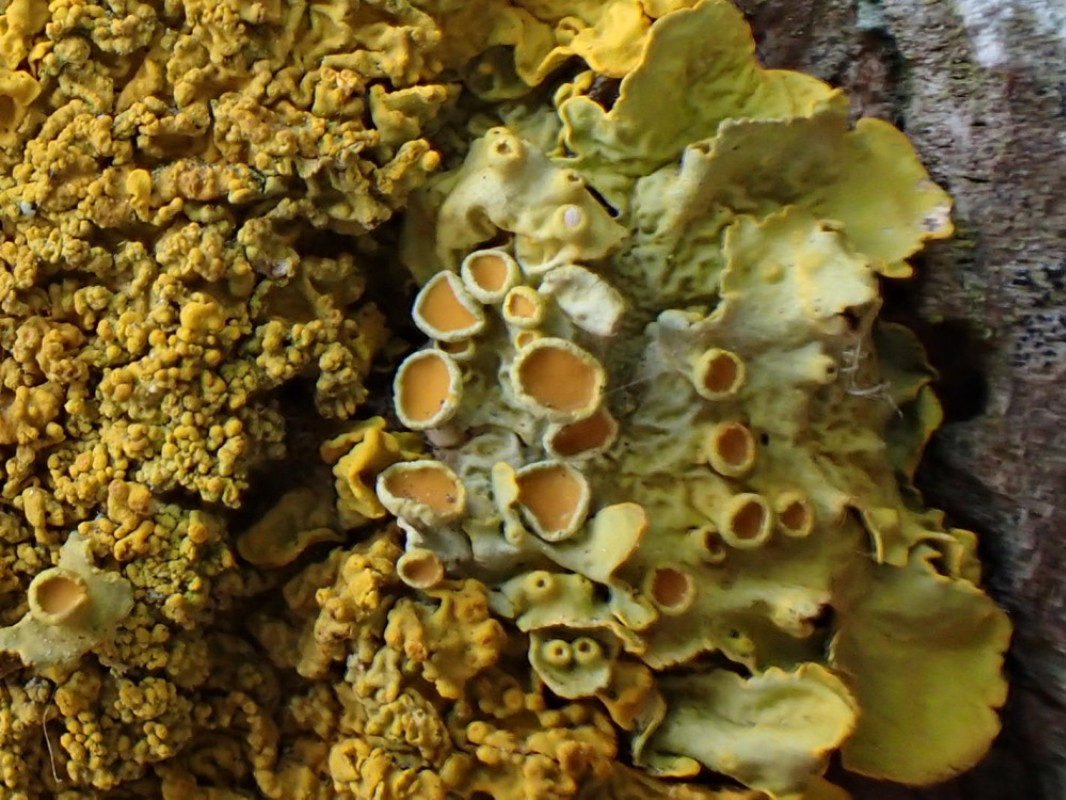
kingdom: Fungi
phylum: Ascomycota
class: Lecanoromycetes
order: Teloschistales
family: Teloschistaceae
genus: Xanthoria
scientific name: Xanthoria parietina
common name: almindelig væggelav
